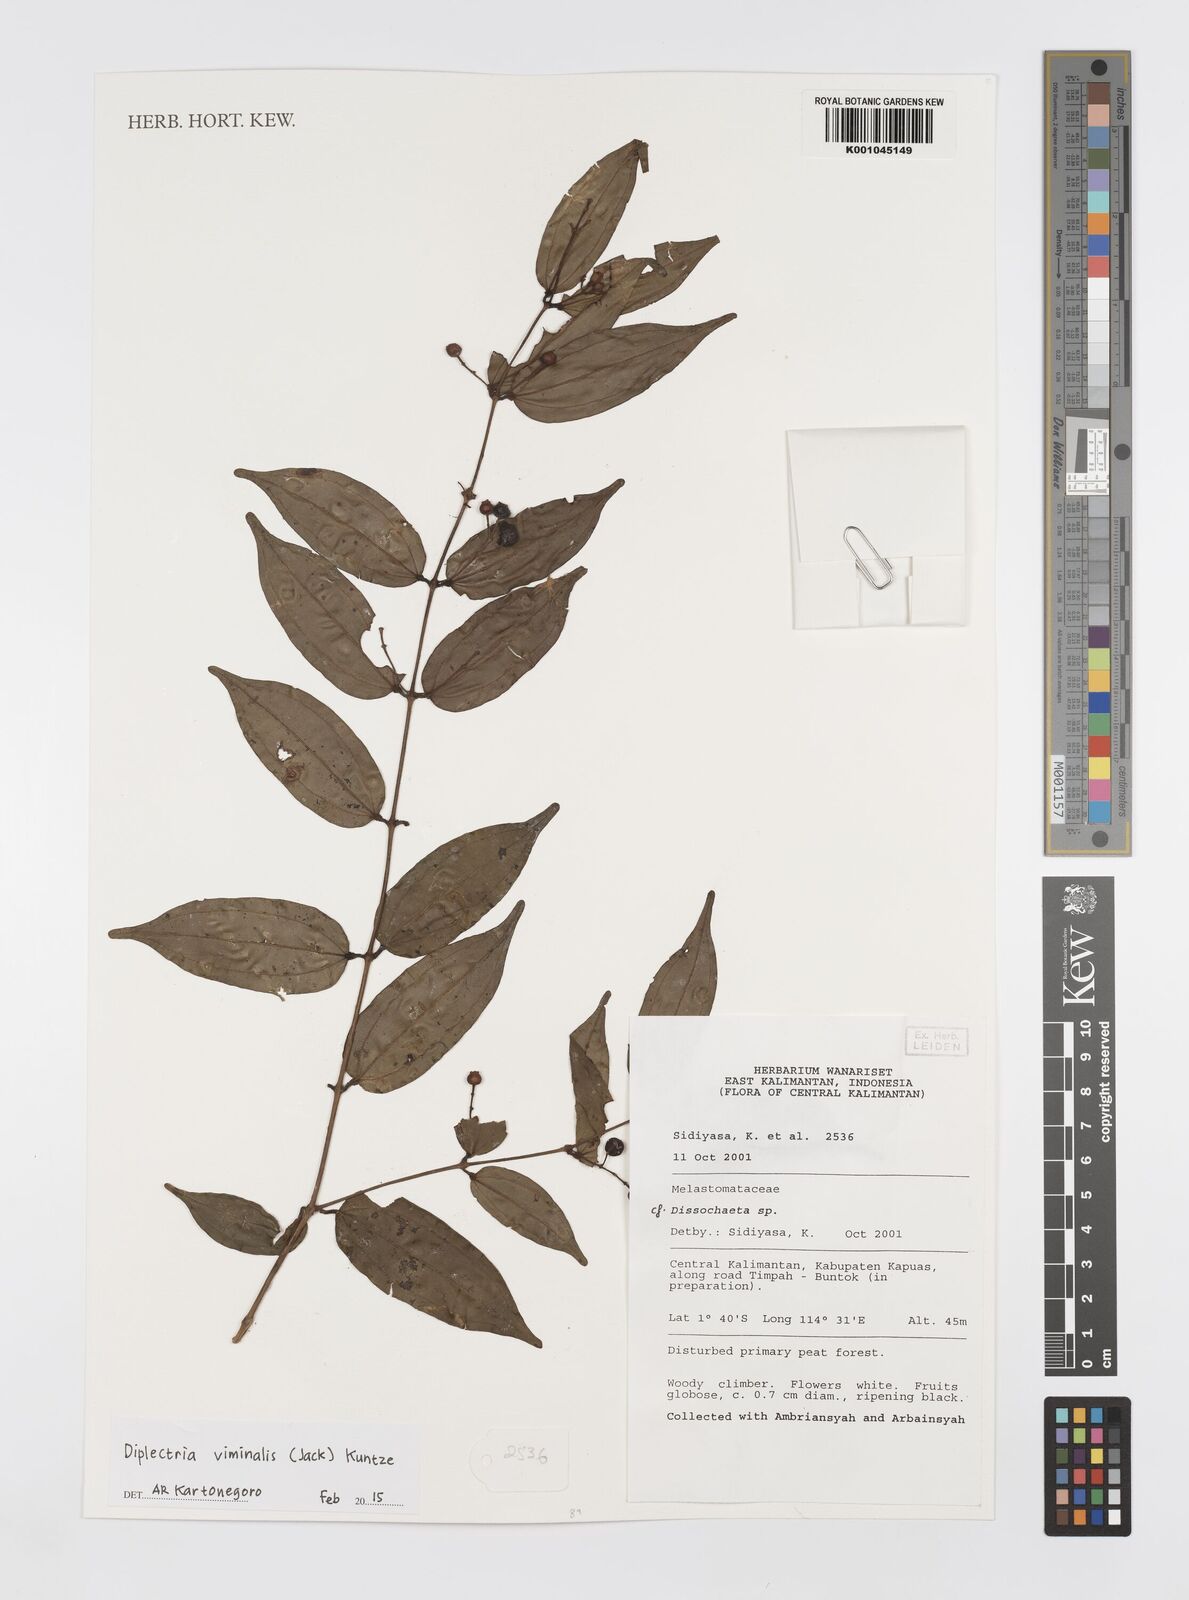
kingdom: Plantae
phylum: Tracheophyta
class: Magnoliopsida
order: Myrtales
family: Melastomataceae
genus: Diplectria
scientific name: Diplectria viminalis
